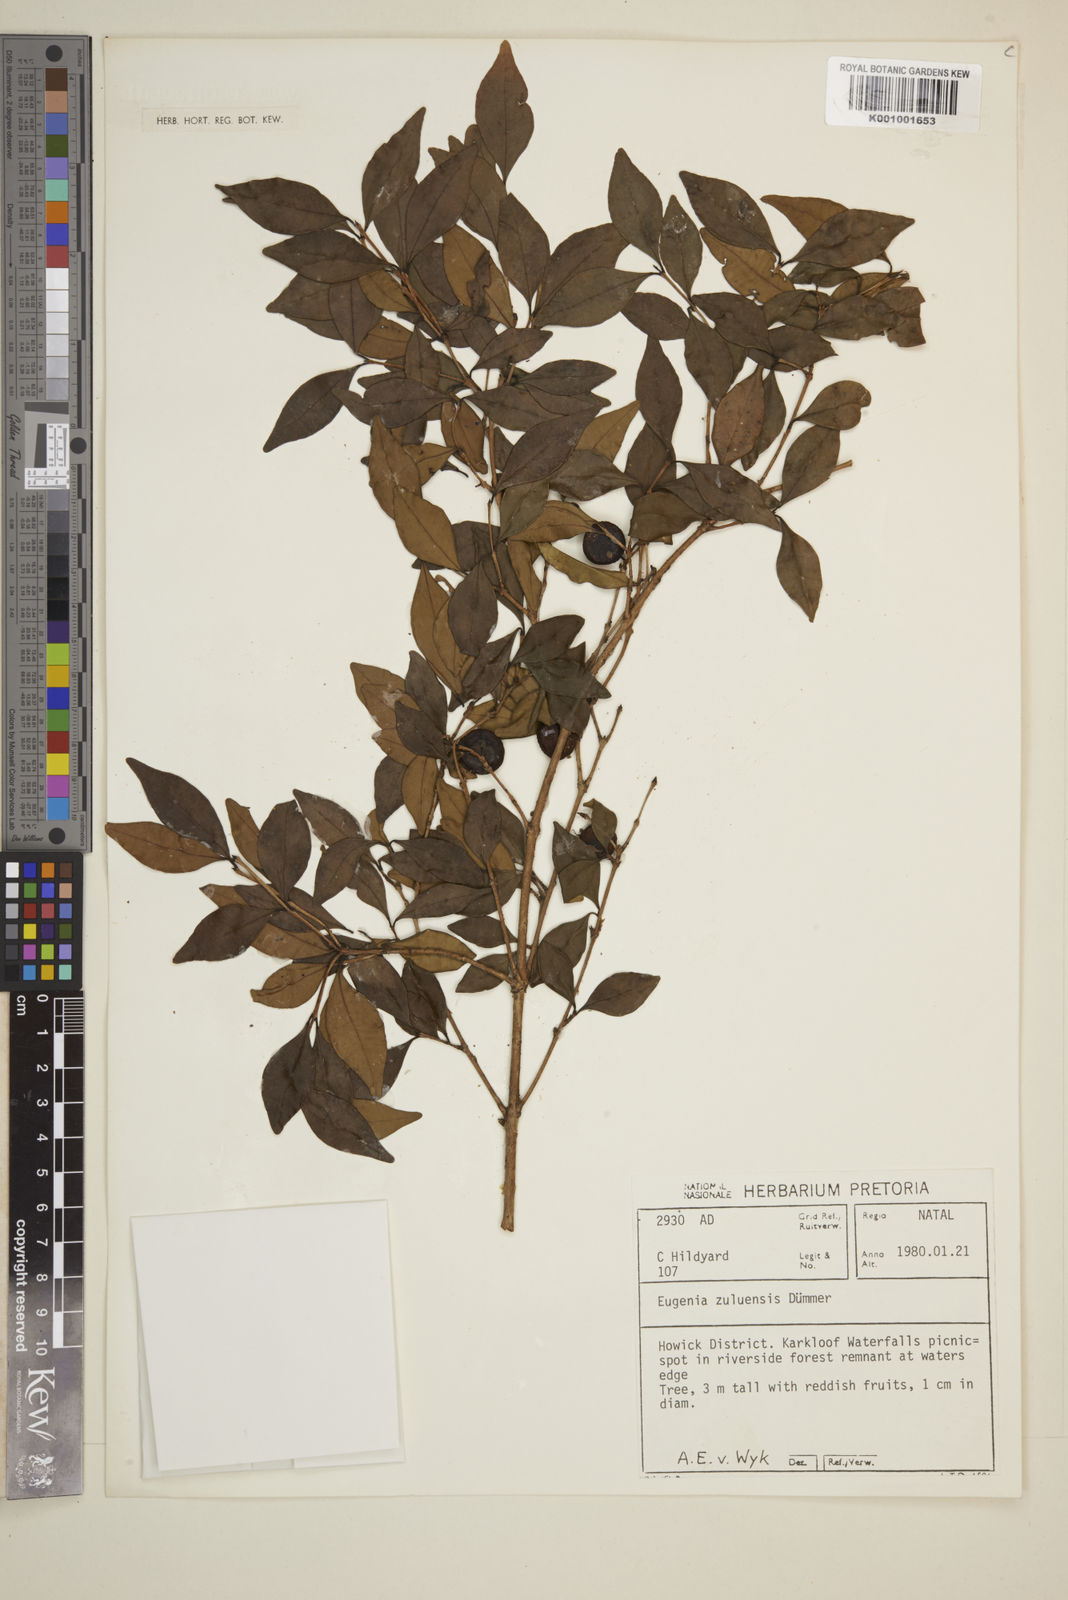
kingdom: Plantae
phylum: Tracheophyta
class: Magnoliopsida
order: Myrtales
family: Myrtaceae
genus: Eugenia
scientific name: Eugenia natalitia
